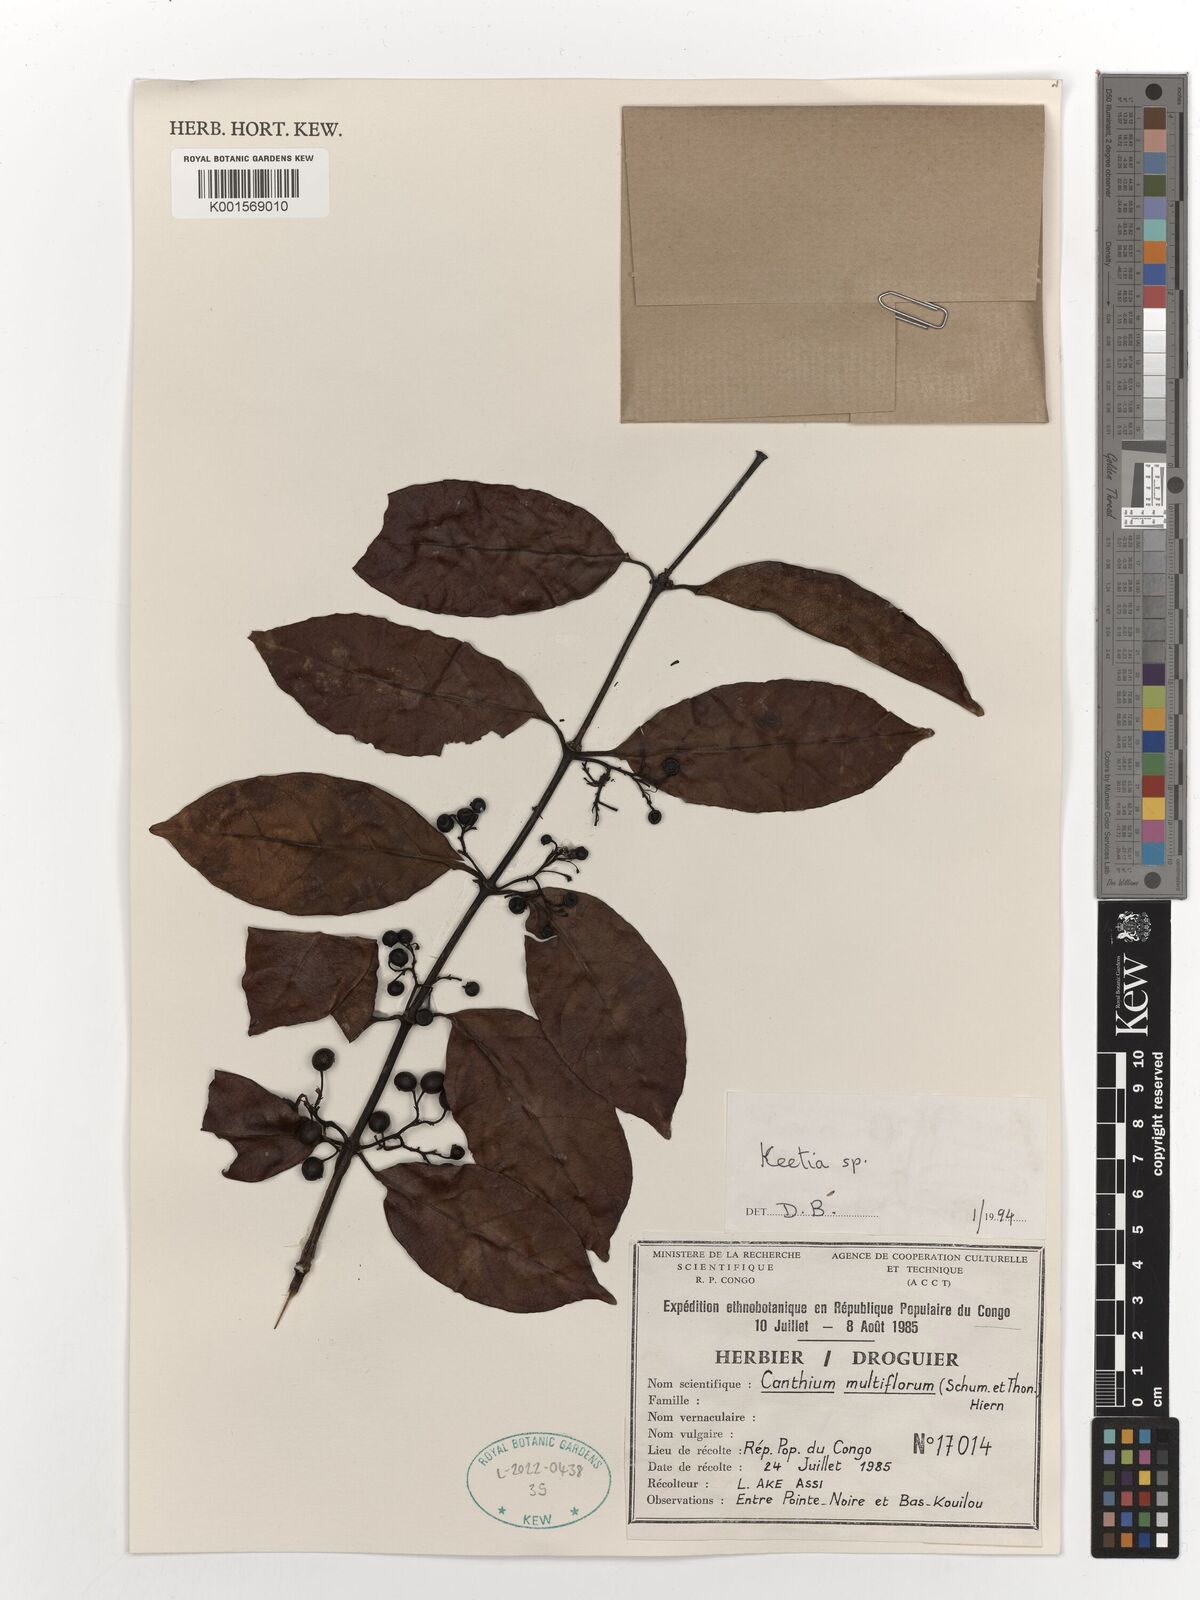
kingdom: Plantae
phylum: Tracheophyta
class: Magnoliopsida
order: Gentianales
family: Rubiaceae
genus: Keetia
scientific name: Keetia
